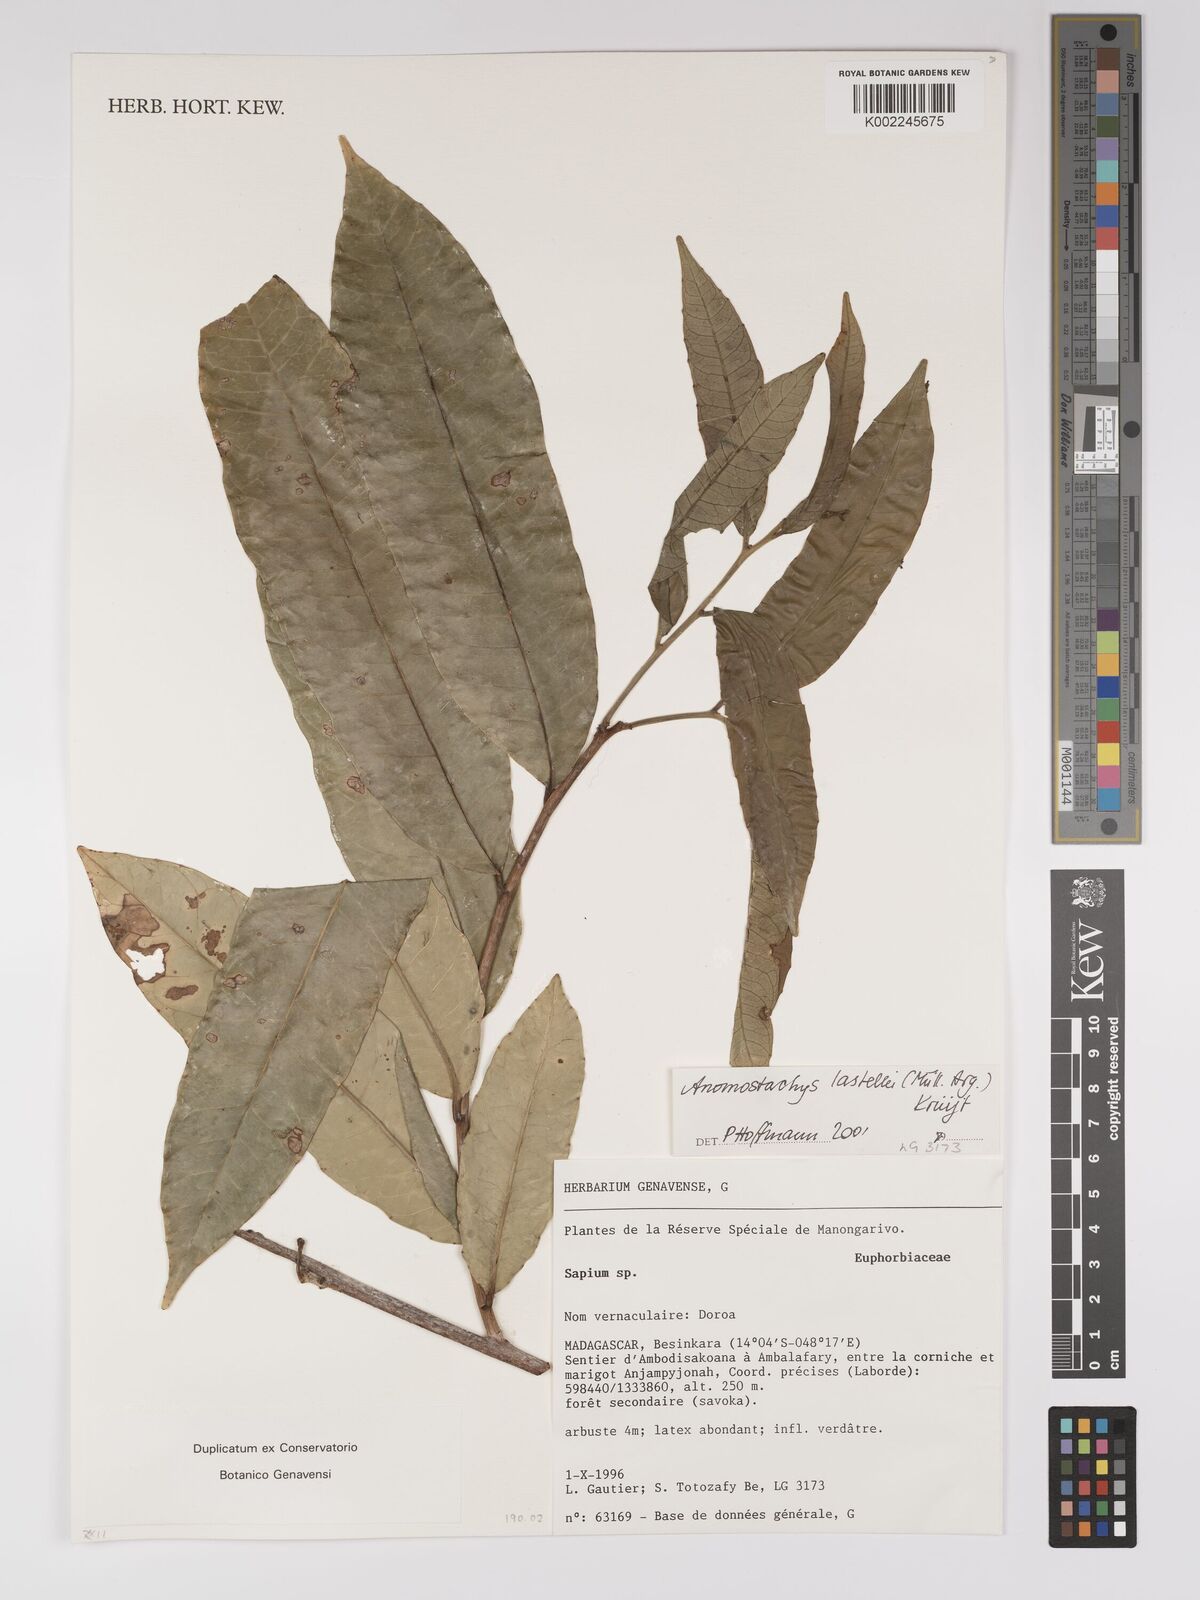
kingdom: Plantae
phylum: Tracheophyta
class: Magnoliopsida
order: Malpighiales
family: Euphorbiaceae
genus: Anomostachys
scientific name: Anomostachys lastellei
